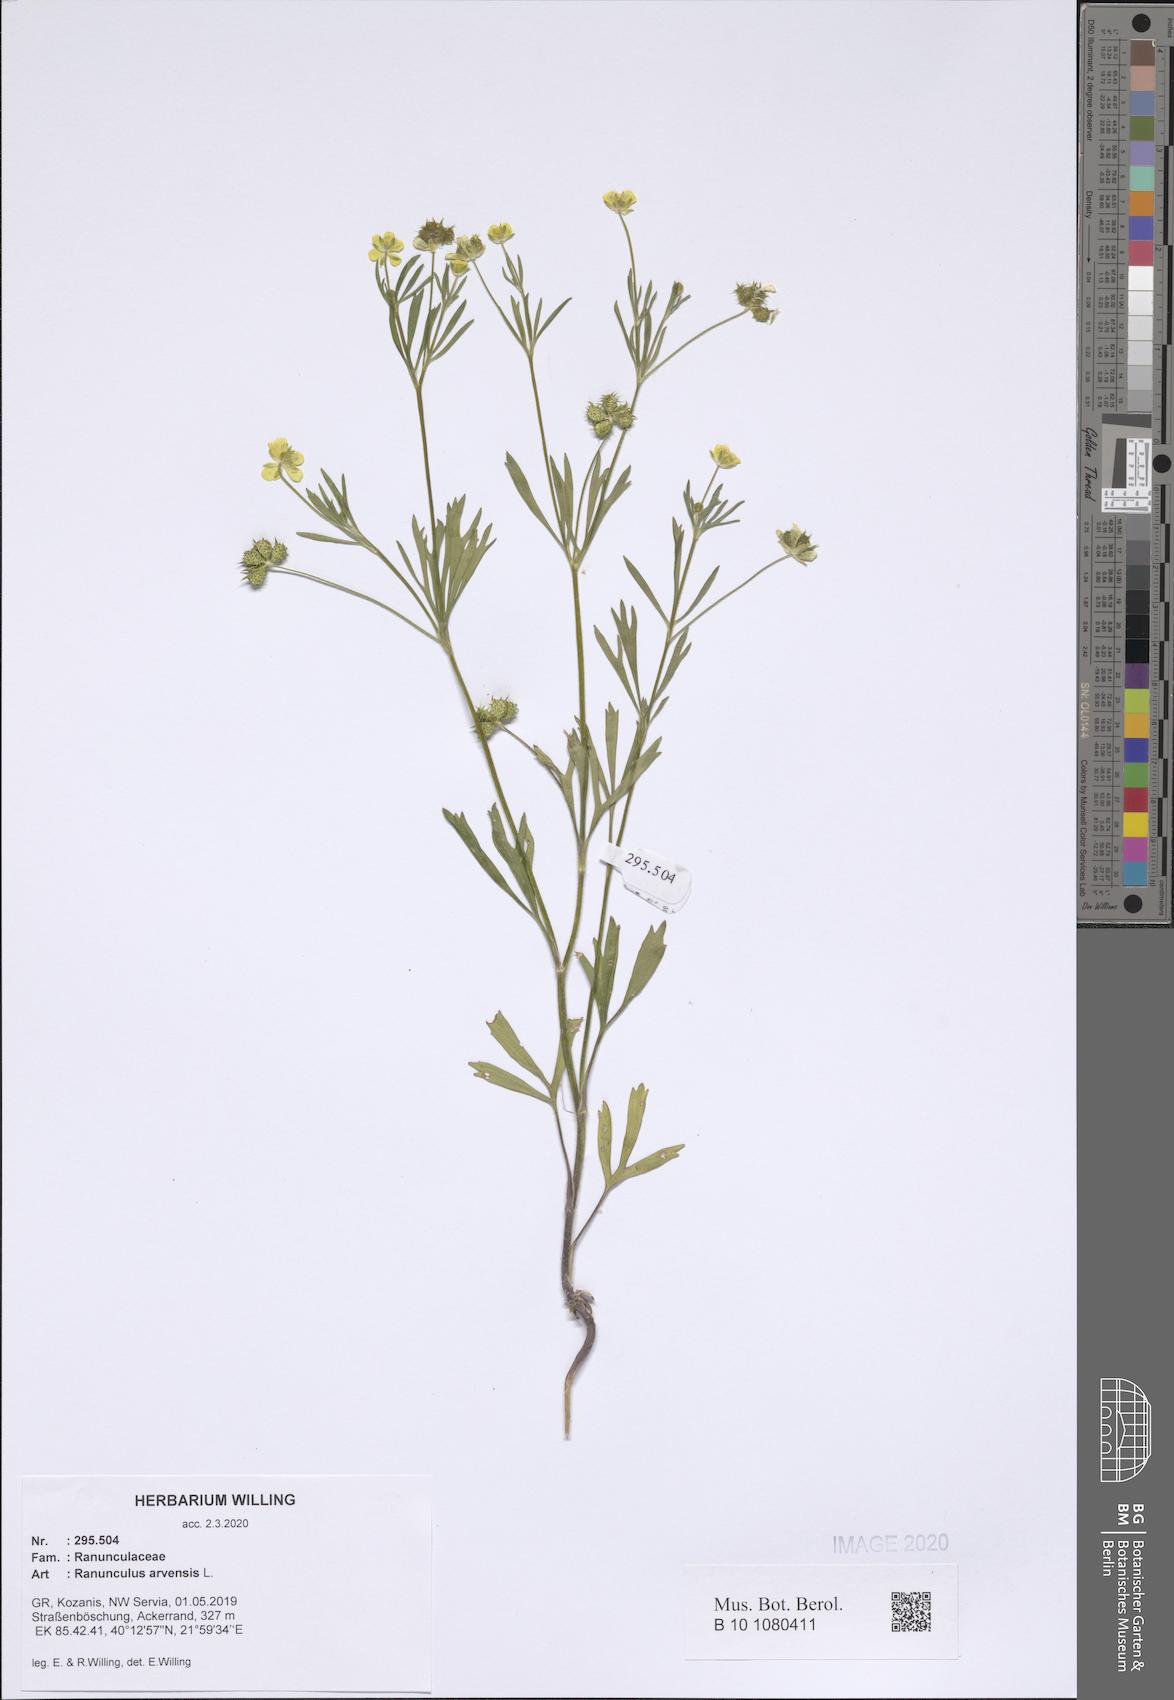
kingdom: Plantae
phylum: Tracheophyta
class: Magnoliopsida
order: Ranunculales
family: Ranunculaceae
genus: Ranunculus
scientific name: Ranunculus arvensis
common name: Corn buttercup
